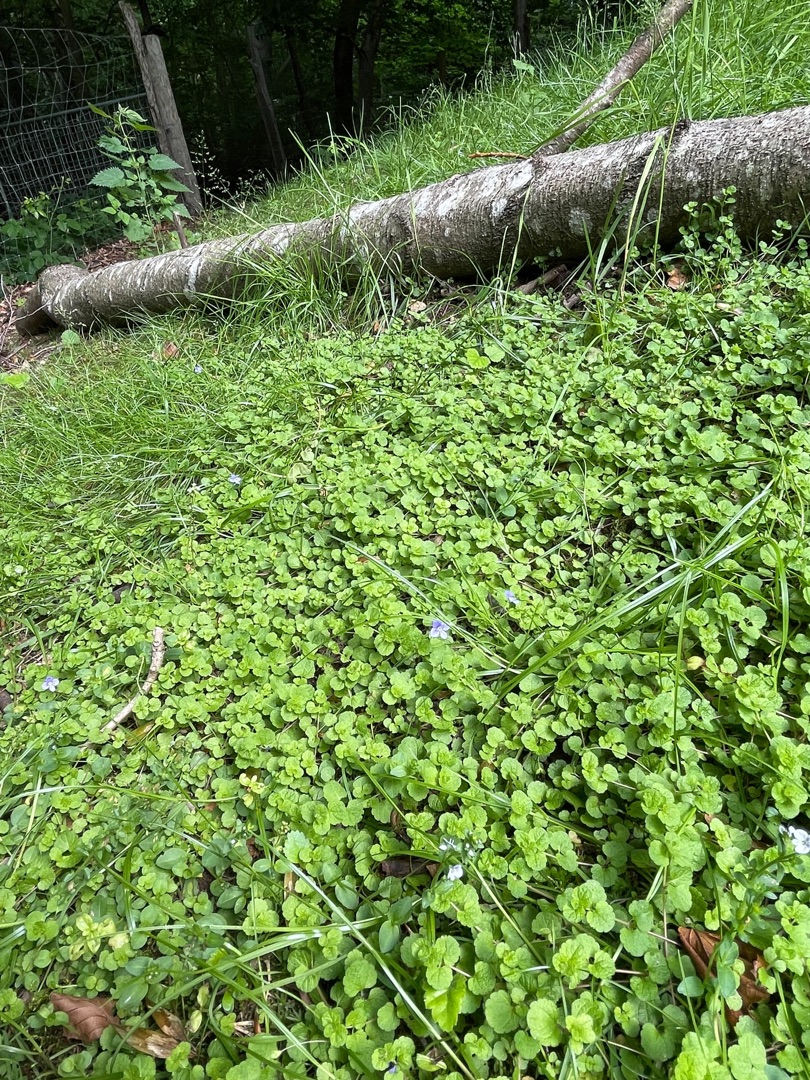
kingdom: Plantae
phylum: Tracheophyta
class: Magnoliopsida
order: Lamiales
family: Plantaginaceae
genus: Veronica
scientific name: Veronica filiformis
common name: Tråd-ærenpris
